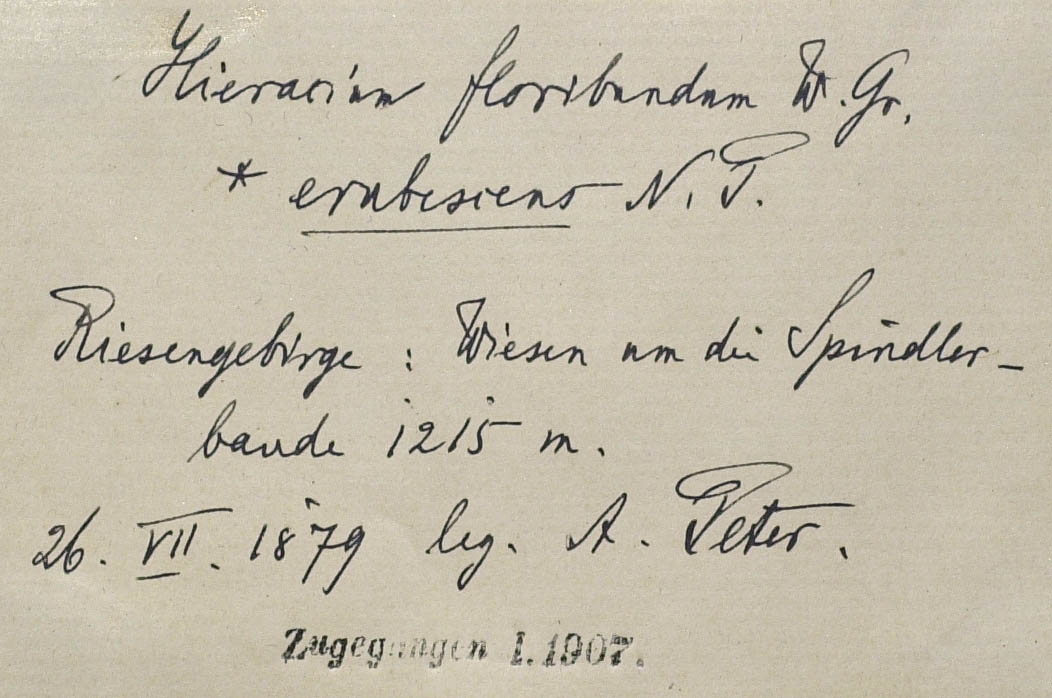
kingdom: Plantae
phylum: Tracheophyta
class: Magnoliopsida
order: Asterales
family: Asteraceae
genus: Pilosella
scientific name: Pilosella floribunda
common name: Glaucous hawkweed
